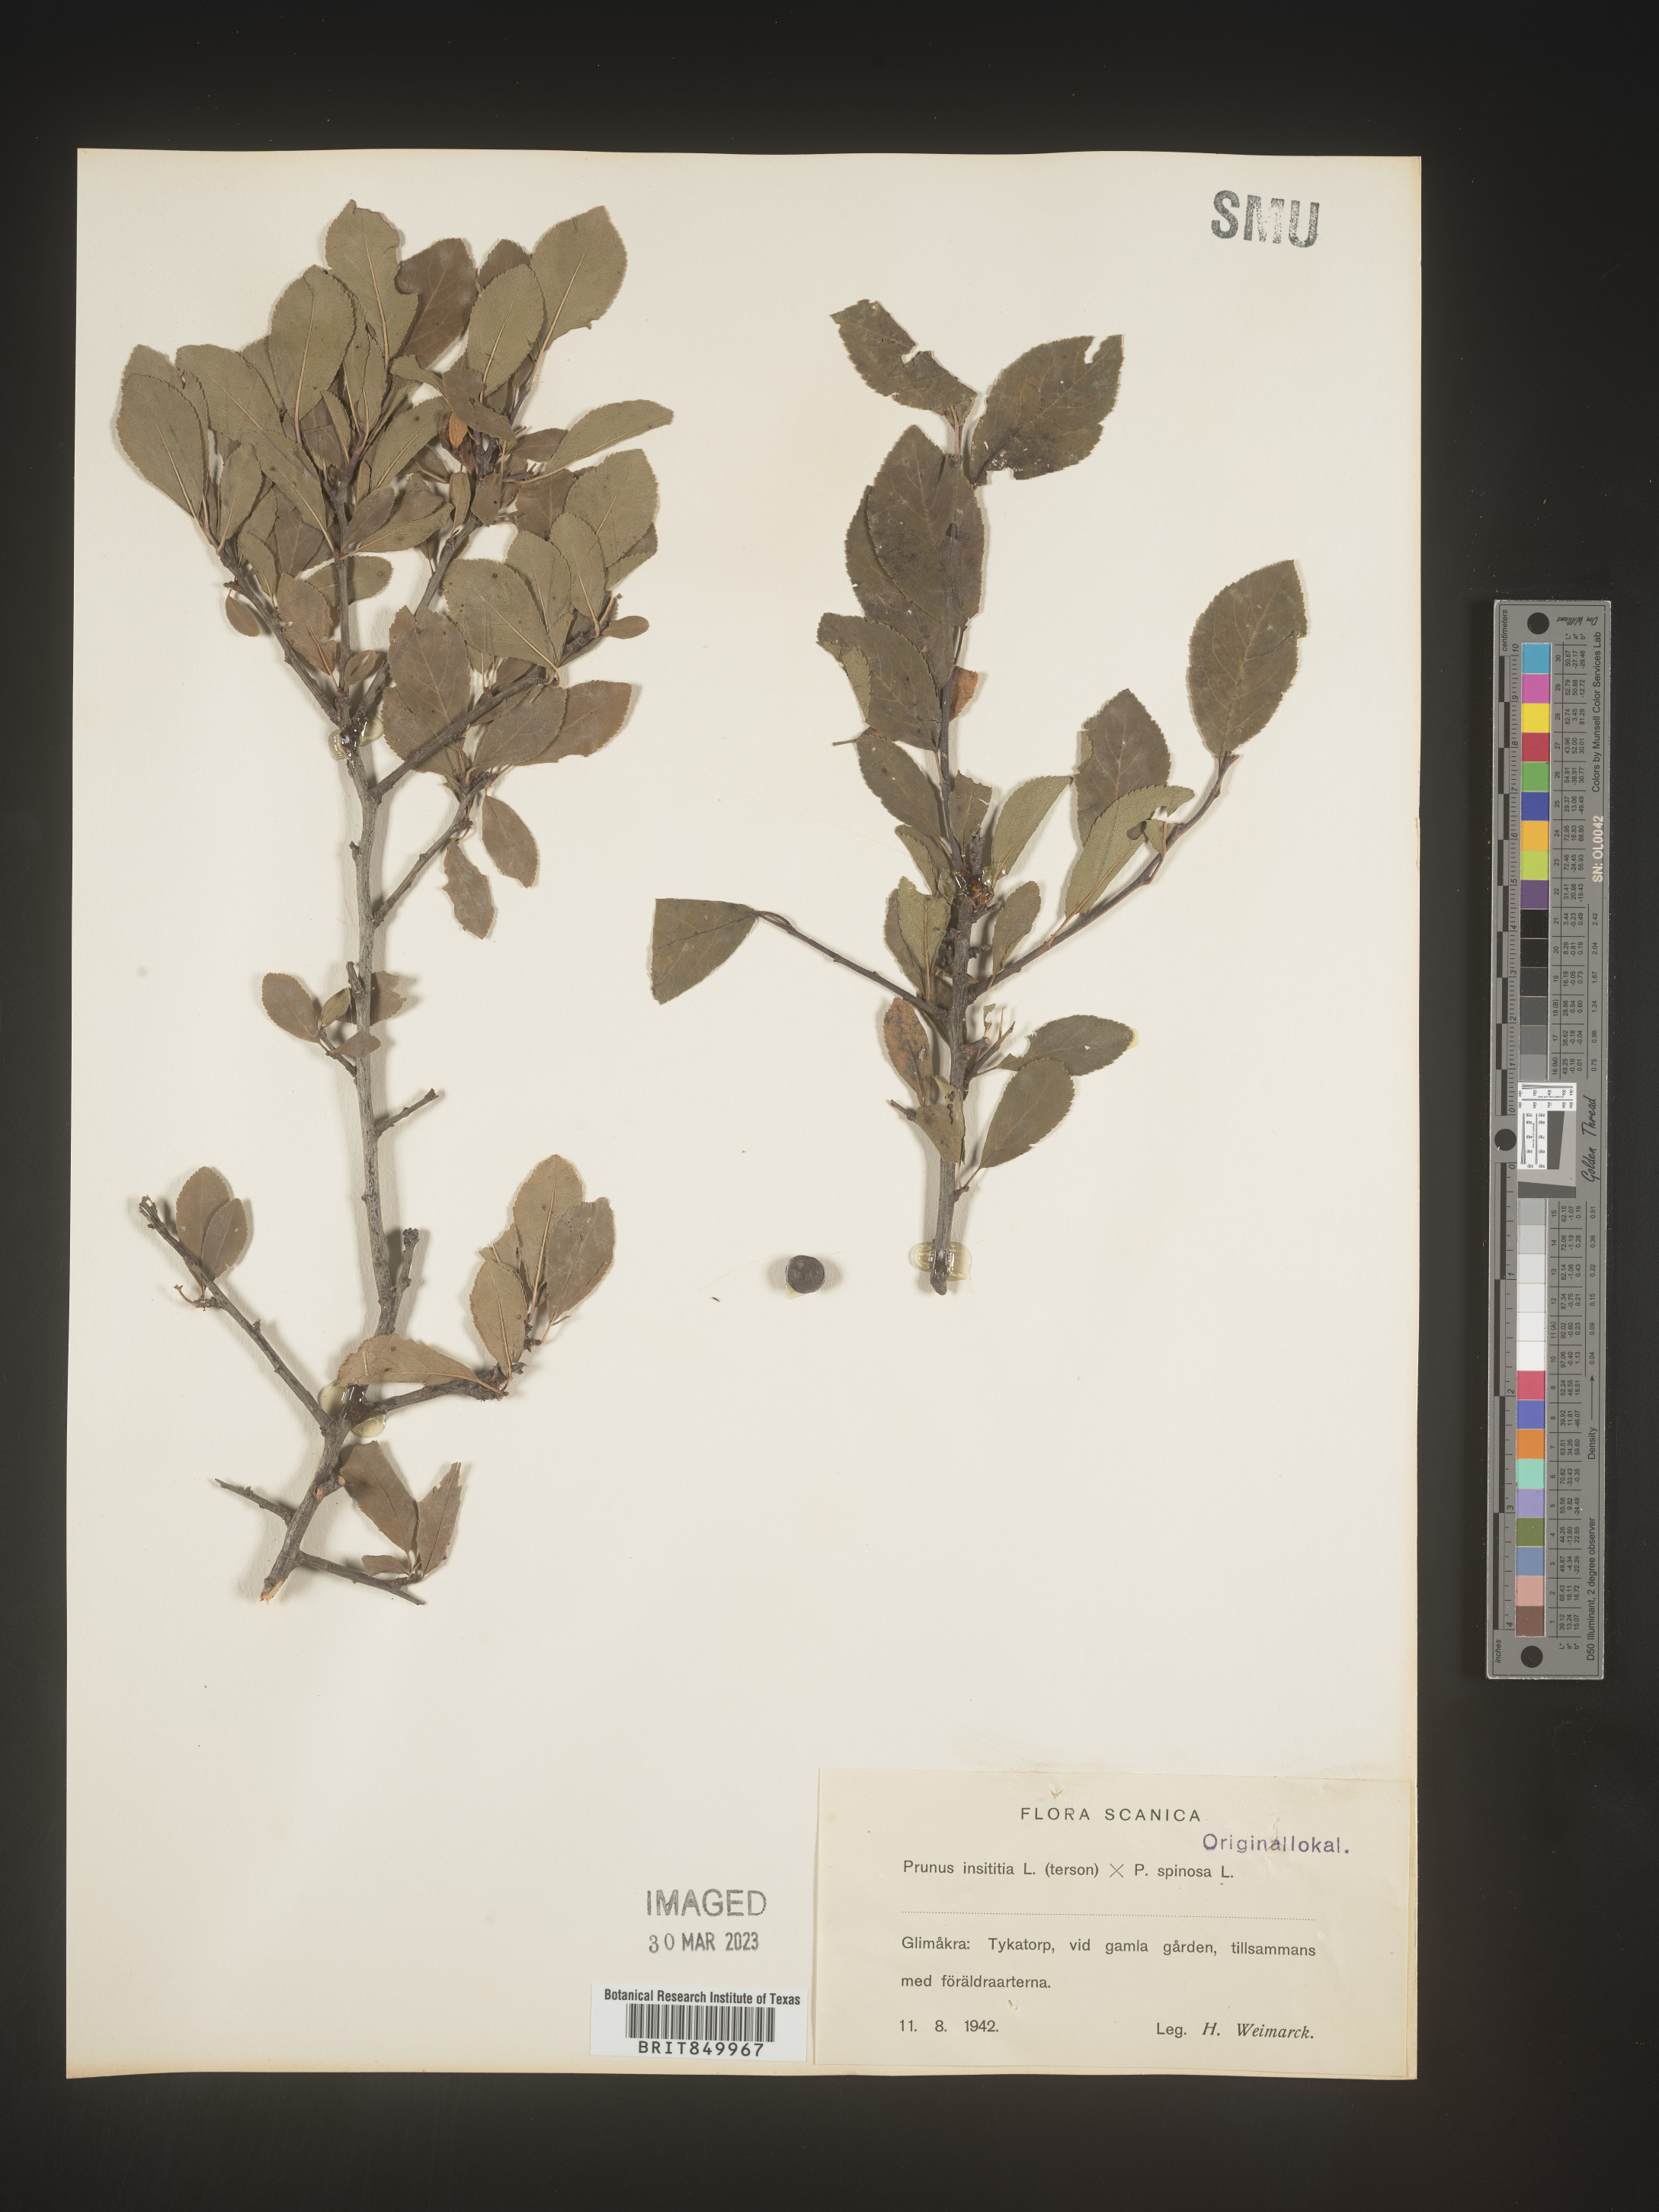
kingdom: Plantae
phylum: Tracheophyta
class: Magnoliopsida
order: Rosales
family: Rosaceae
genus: Prunus
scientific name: Prunus
